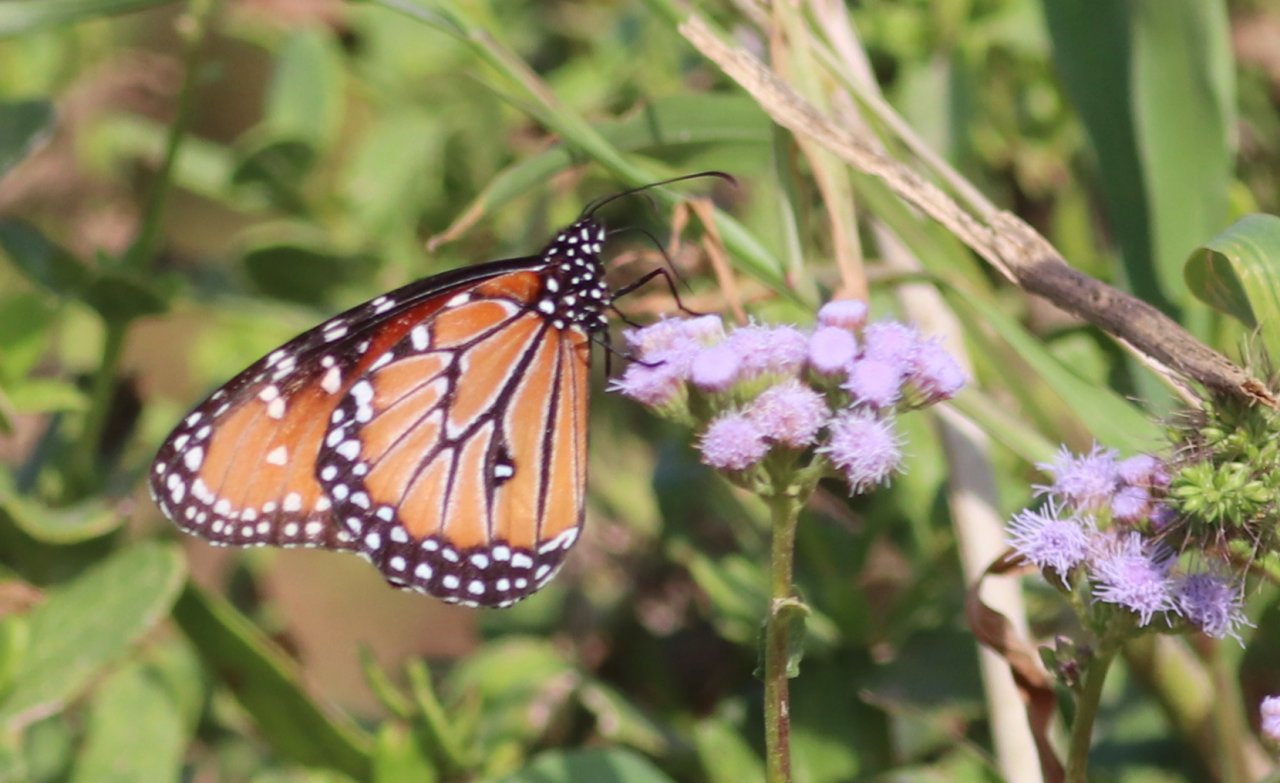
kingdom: Animalia
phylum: Arthropoda
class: Insecta
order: Lepidoptera
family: Nymphalidae
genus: Danaus
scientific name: Danaus gilippus
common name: Queen
